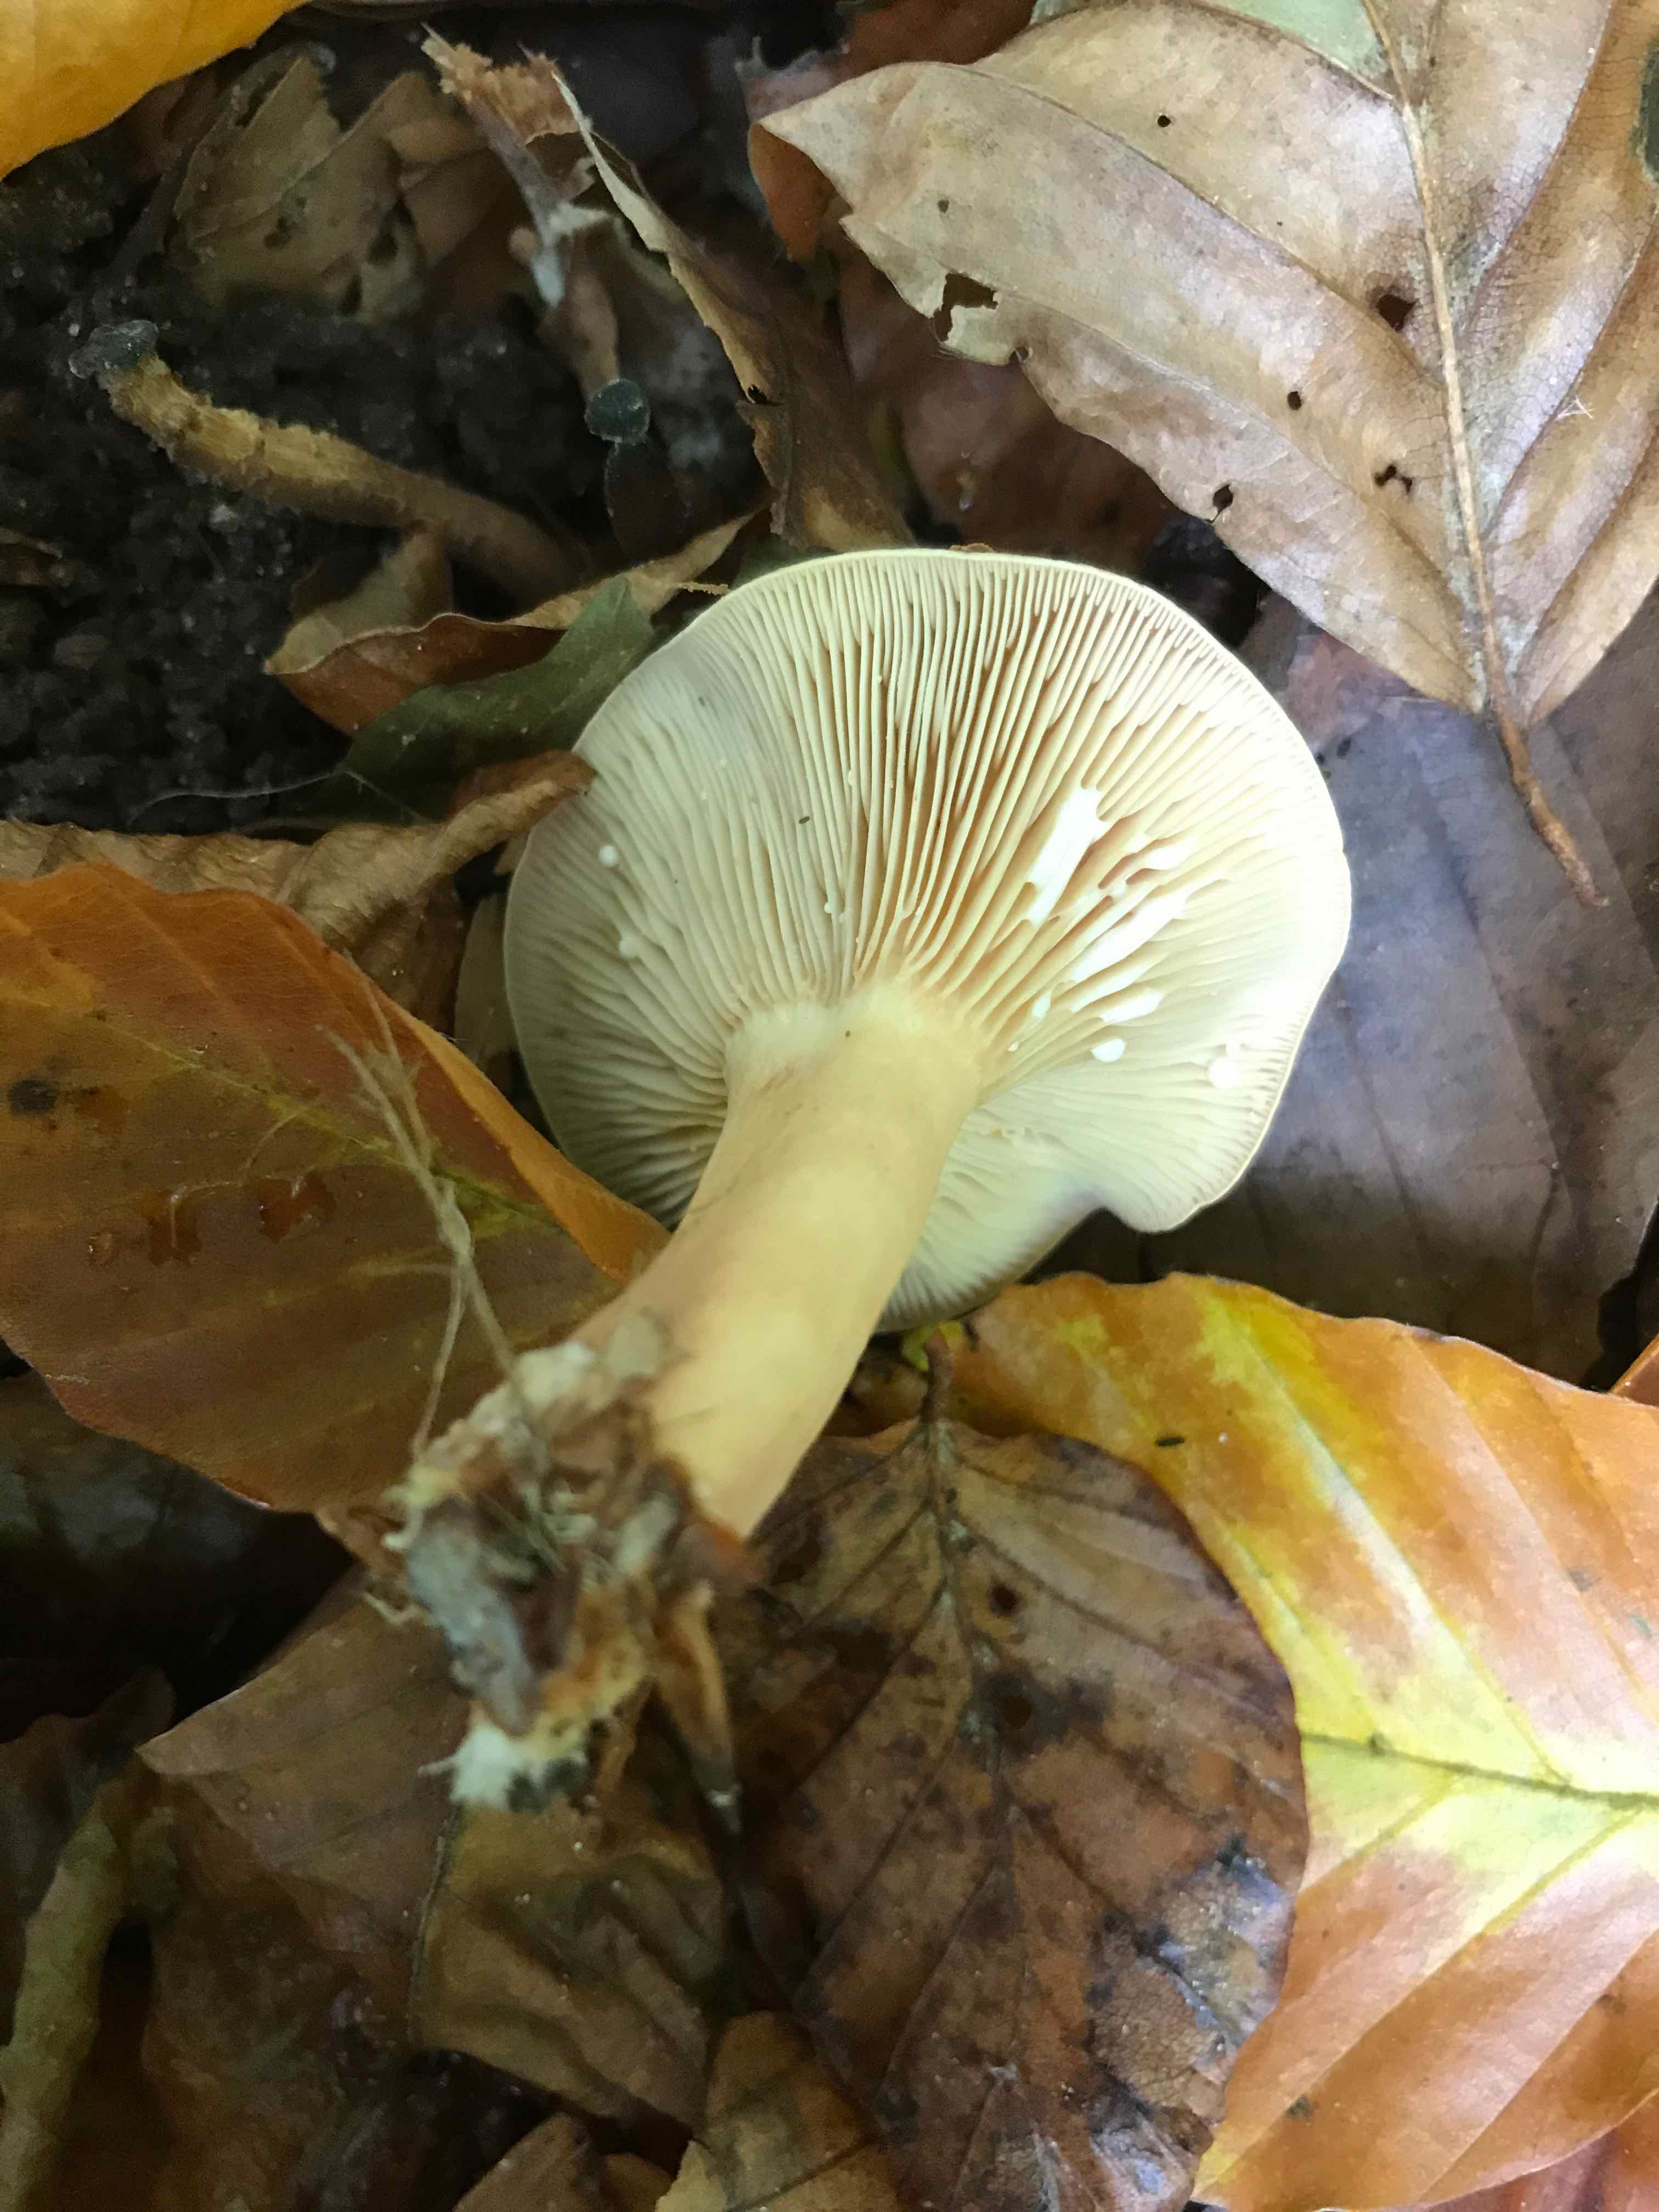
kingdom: Fungi
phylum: Basidiomycota
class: Agaricomycetes
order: Russulales
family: Russulaceae
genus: Lactarius
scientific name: Lactarius subdulcis
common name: sødlig mælkehat
